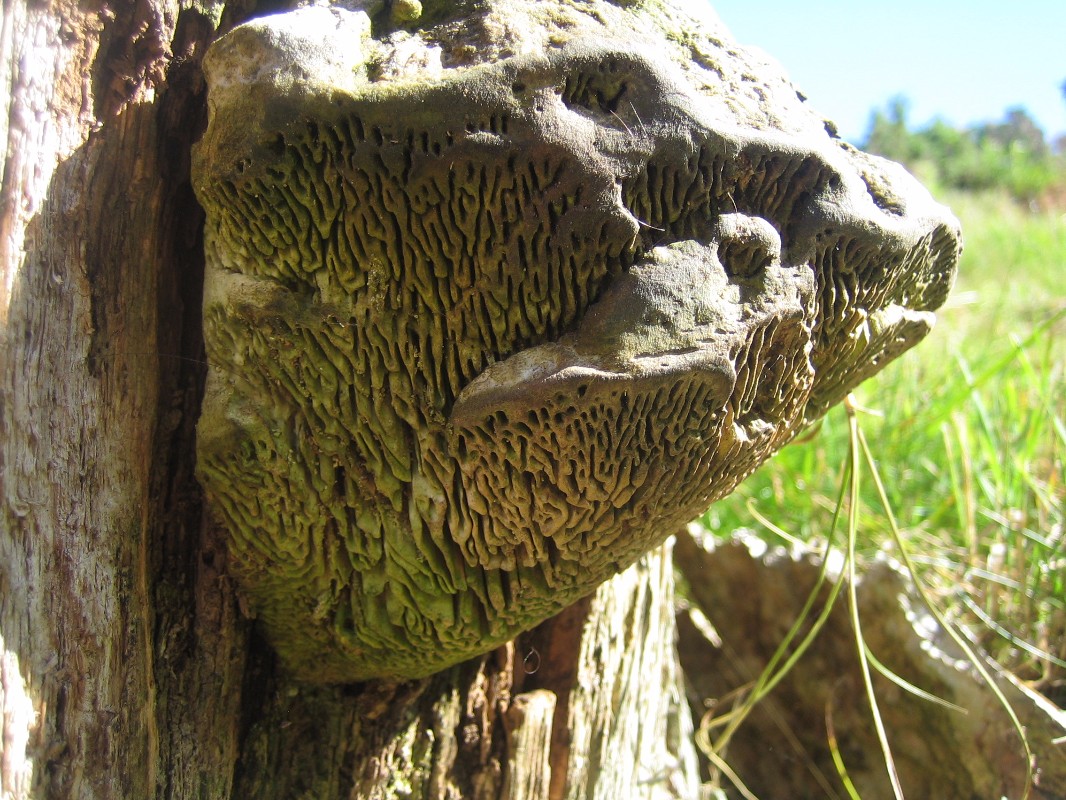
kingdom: Fungi
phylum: Basidiomycota
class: Agaricomycetes
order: Polyporales
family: Fomitopsidaceae
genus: Daedalea
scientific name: Daedalea quercina
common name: ege-labyrintsvamp
